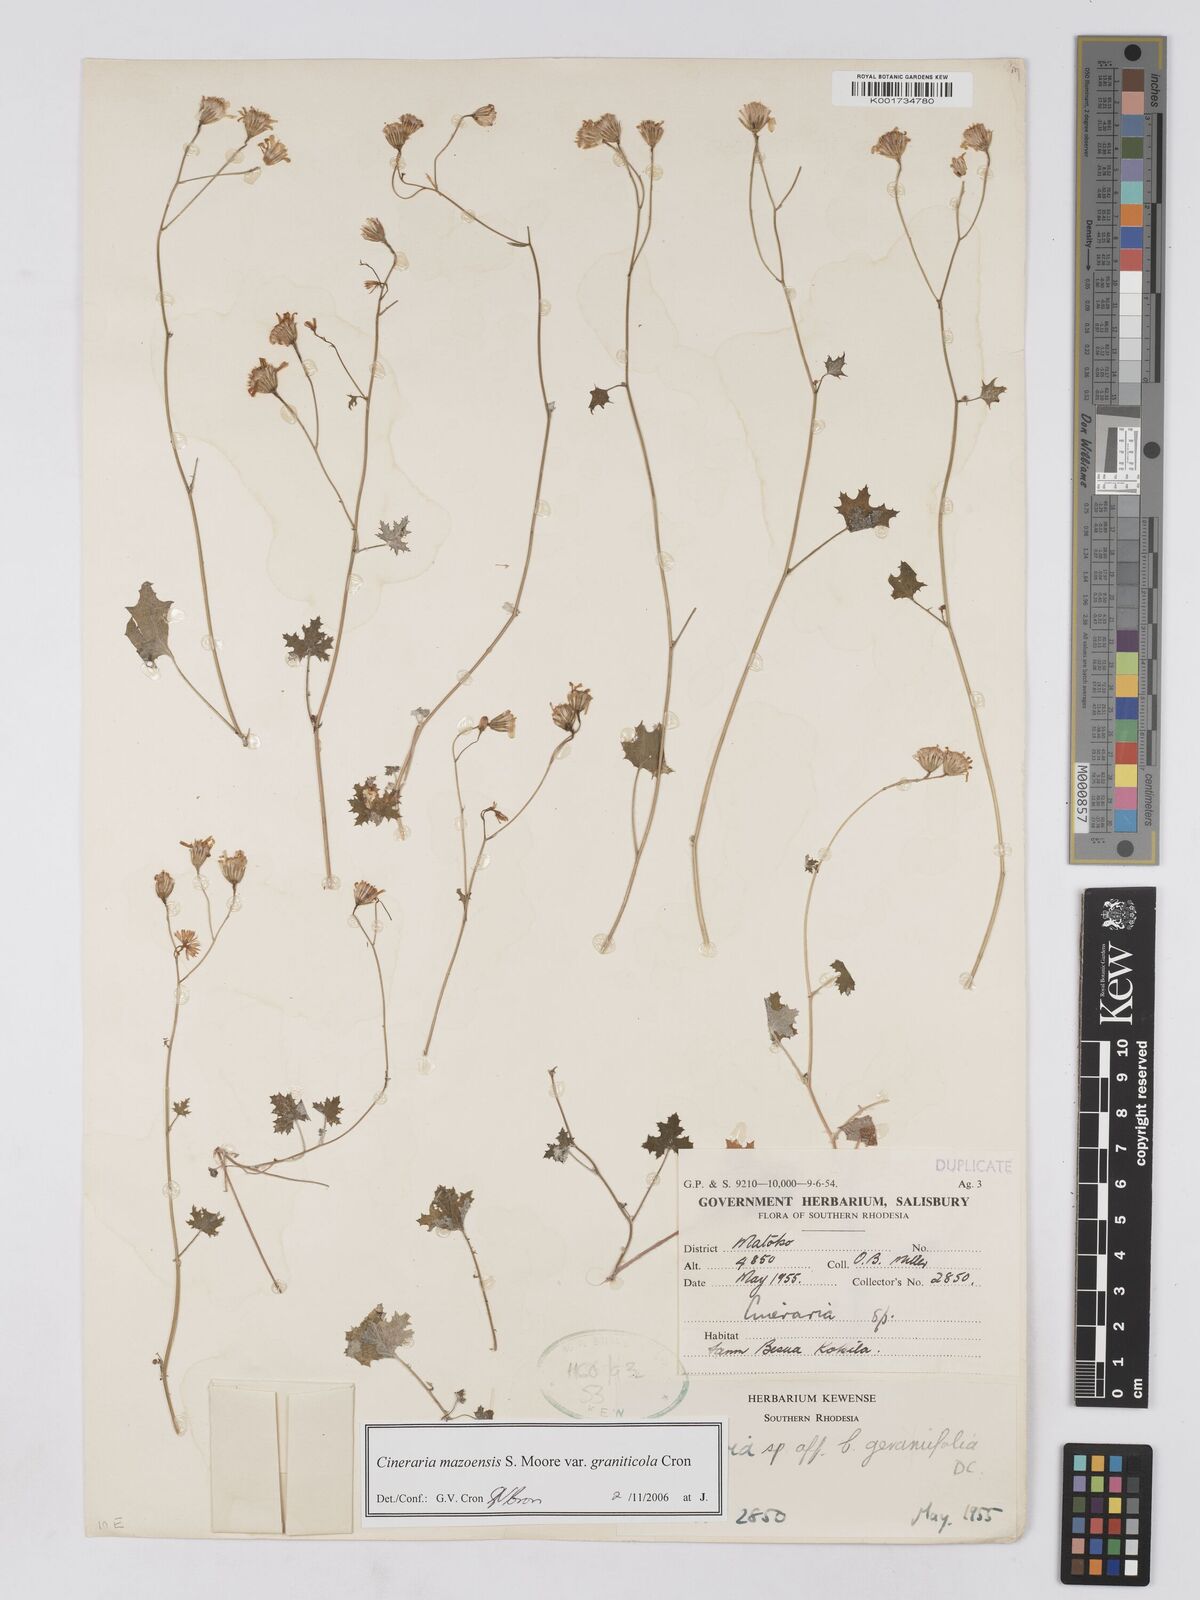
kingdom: Plantae
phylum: Tracheophyta
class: Magnoliopsida
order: Asterales
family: Asteraceae
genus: Cineraria
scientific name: Cineraria mazoensis
